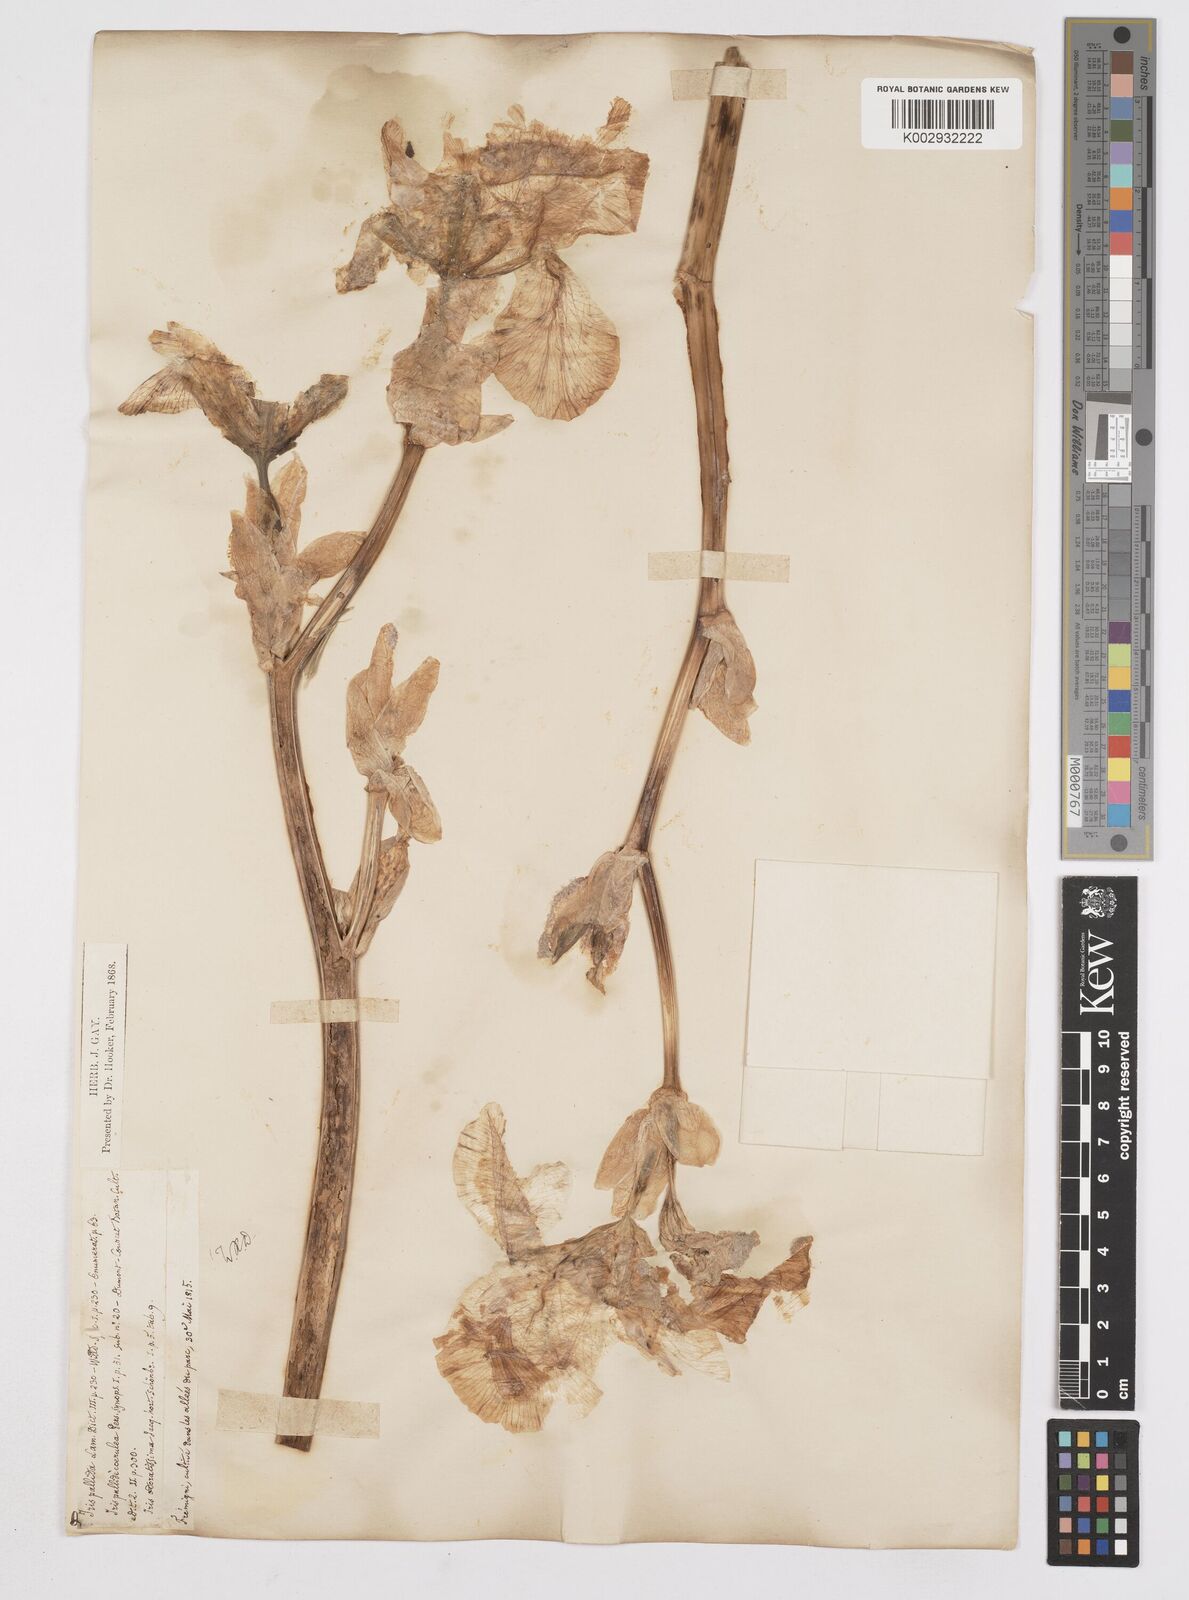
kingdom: Plantae
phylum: Tracheophyta
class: Liliopsida
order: Asparagales
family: Iridaceae
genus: Iris
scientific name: Iris pallida
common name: Sweet iris
